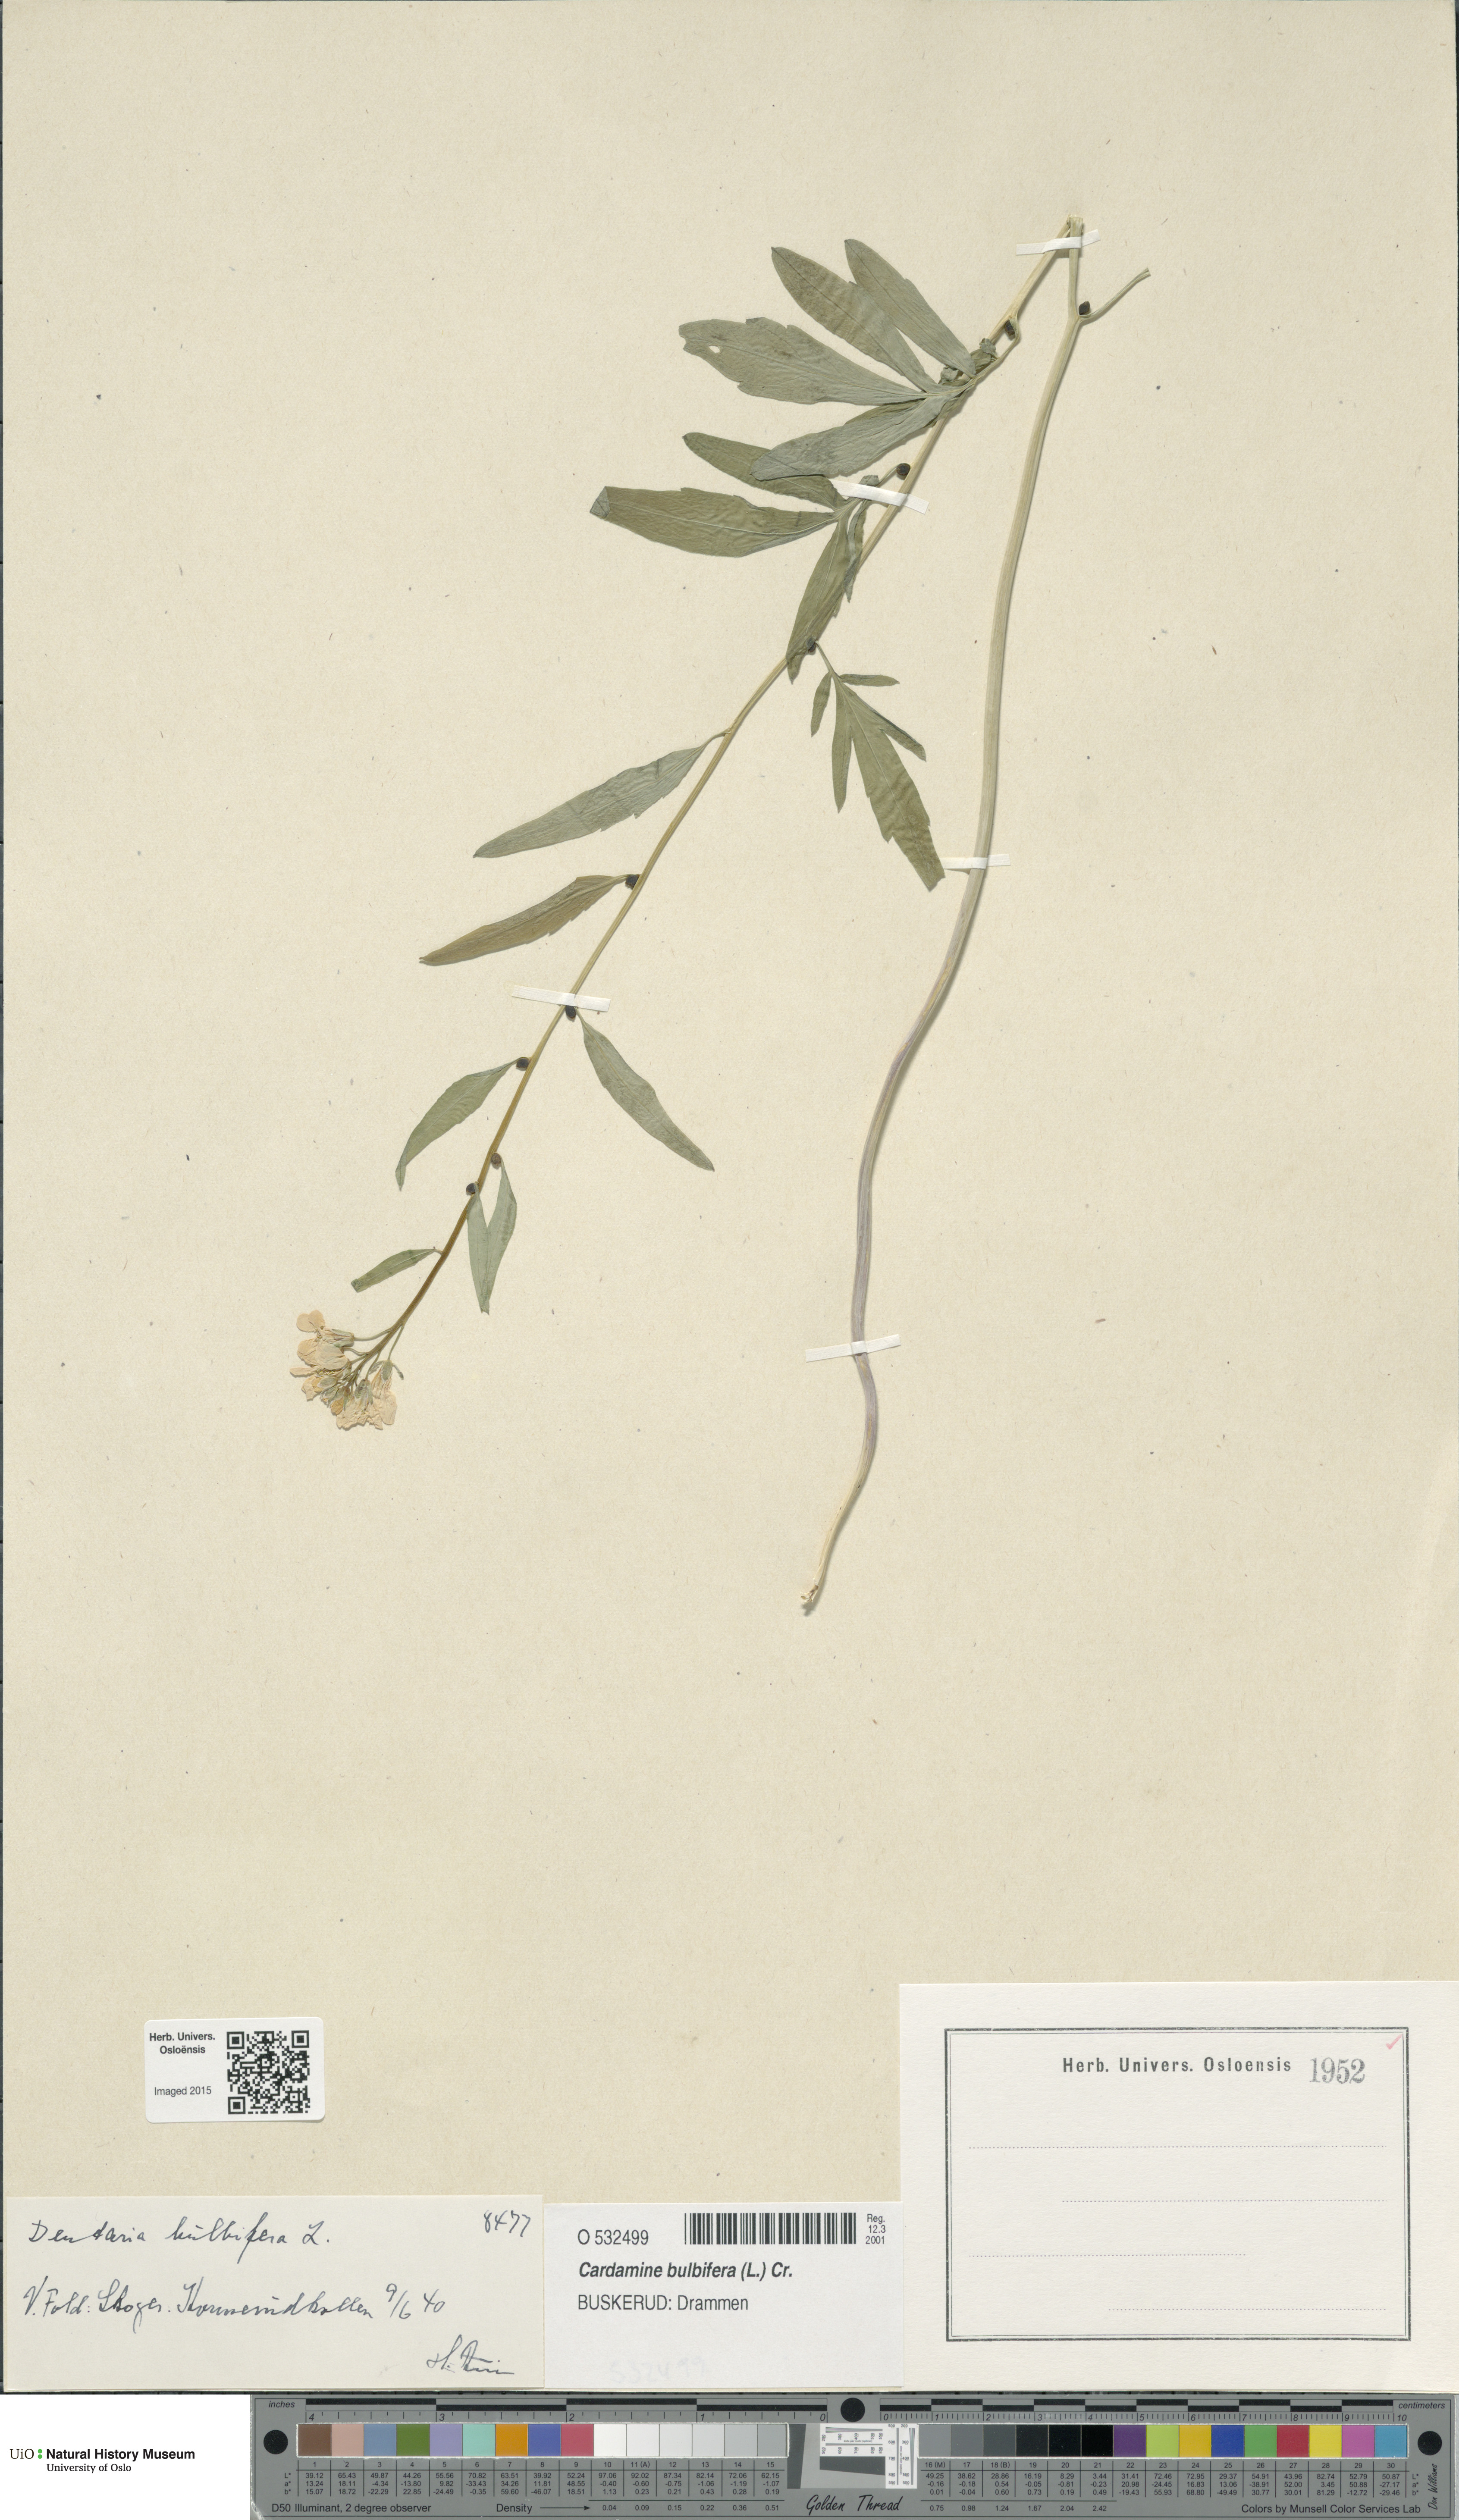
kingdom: Plantae
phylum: Tracheophyta
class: Magnoliopsida
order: Brassicales
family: Brassicaceae
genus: Cardamine
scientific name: Cardamine bulbifera
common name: Coralroot bittercress
